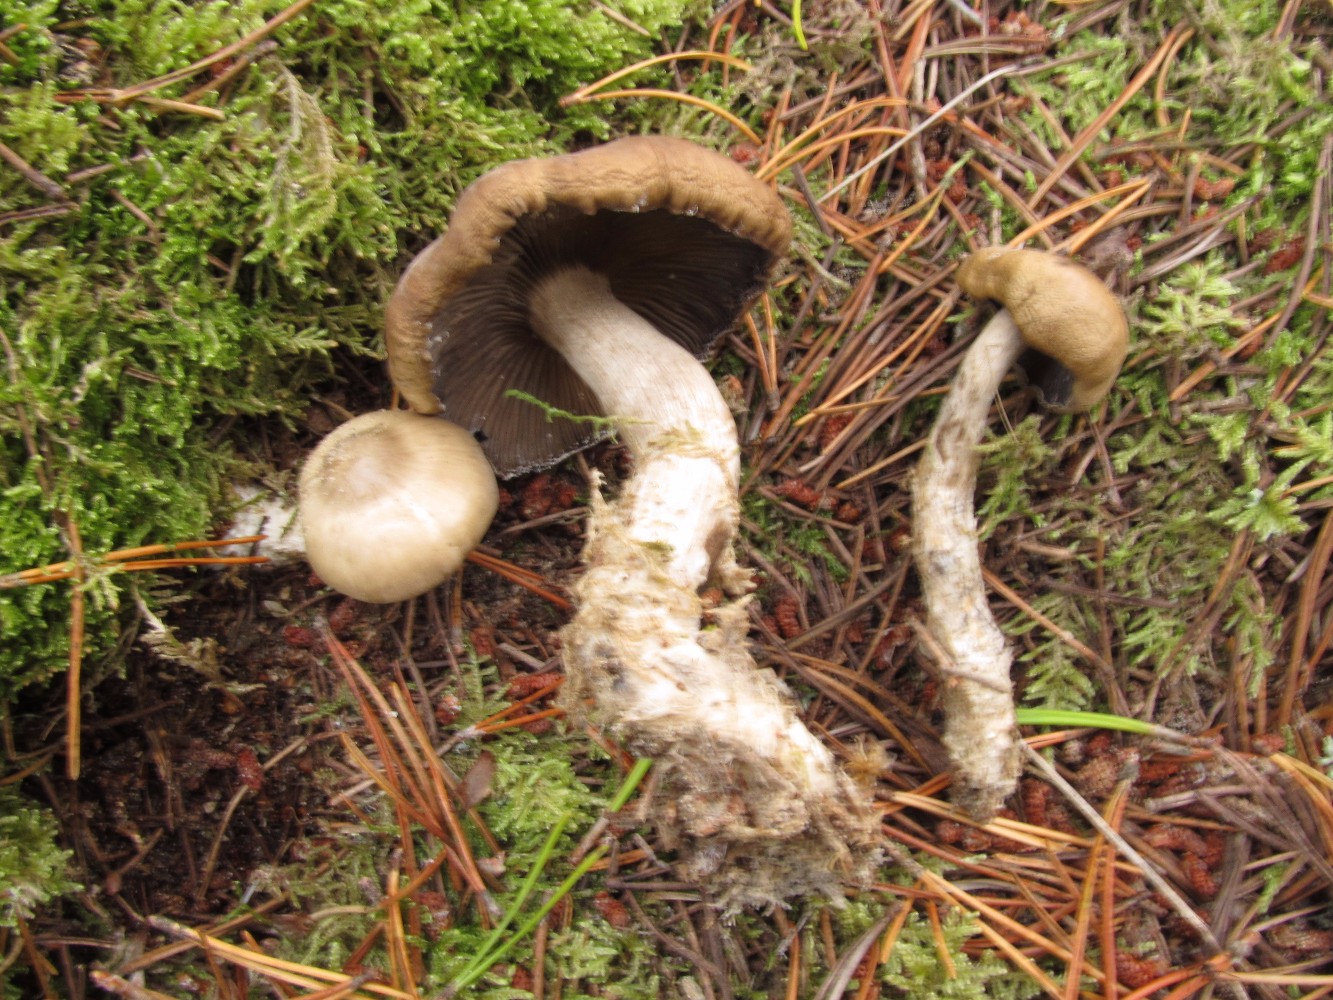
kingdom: Fungi
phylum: Basidiomycota
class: Agaricomycetes
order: Agaricales
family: Lyophyllaceae
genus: Lyophyllum
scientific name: Lyophyllum semitale
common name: sværtende gråblad
